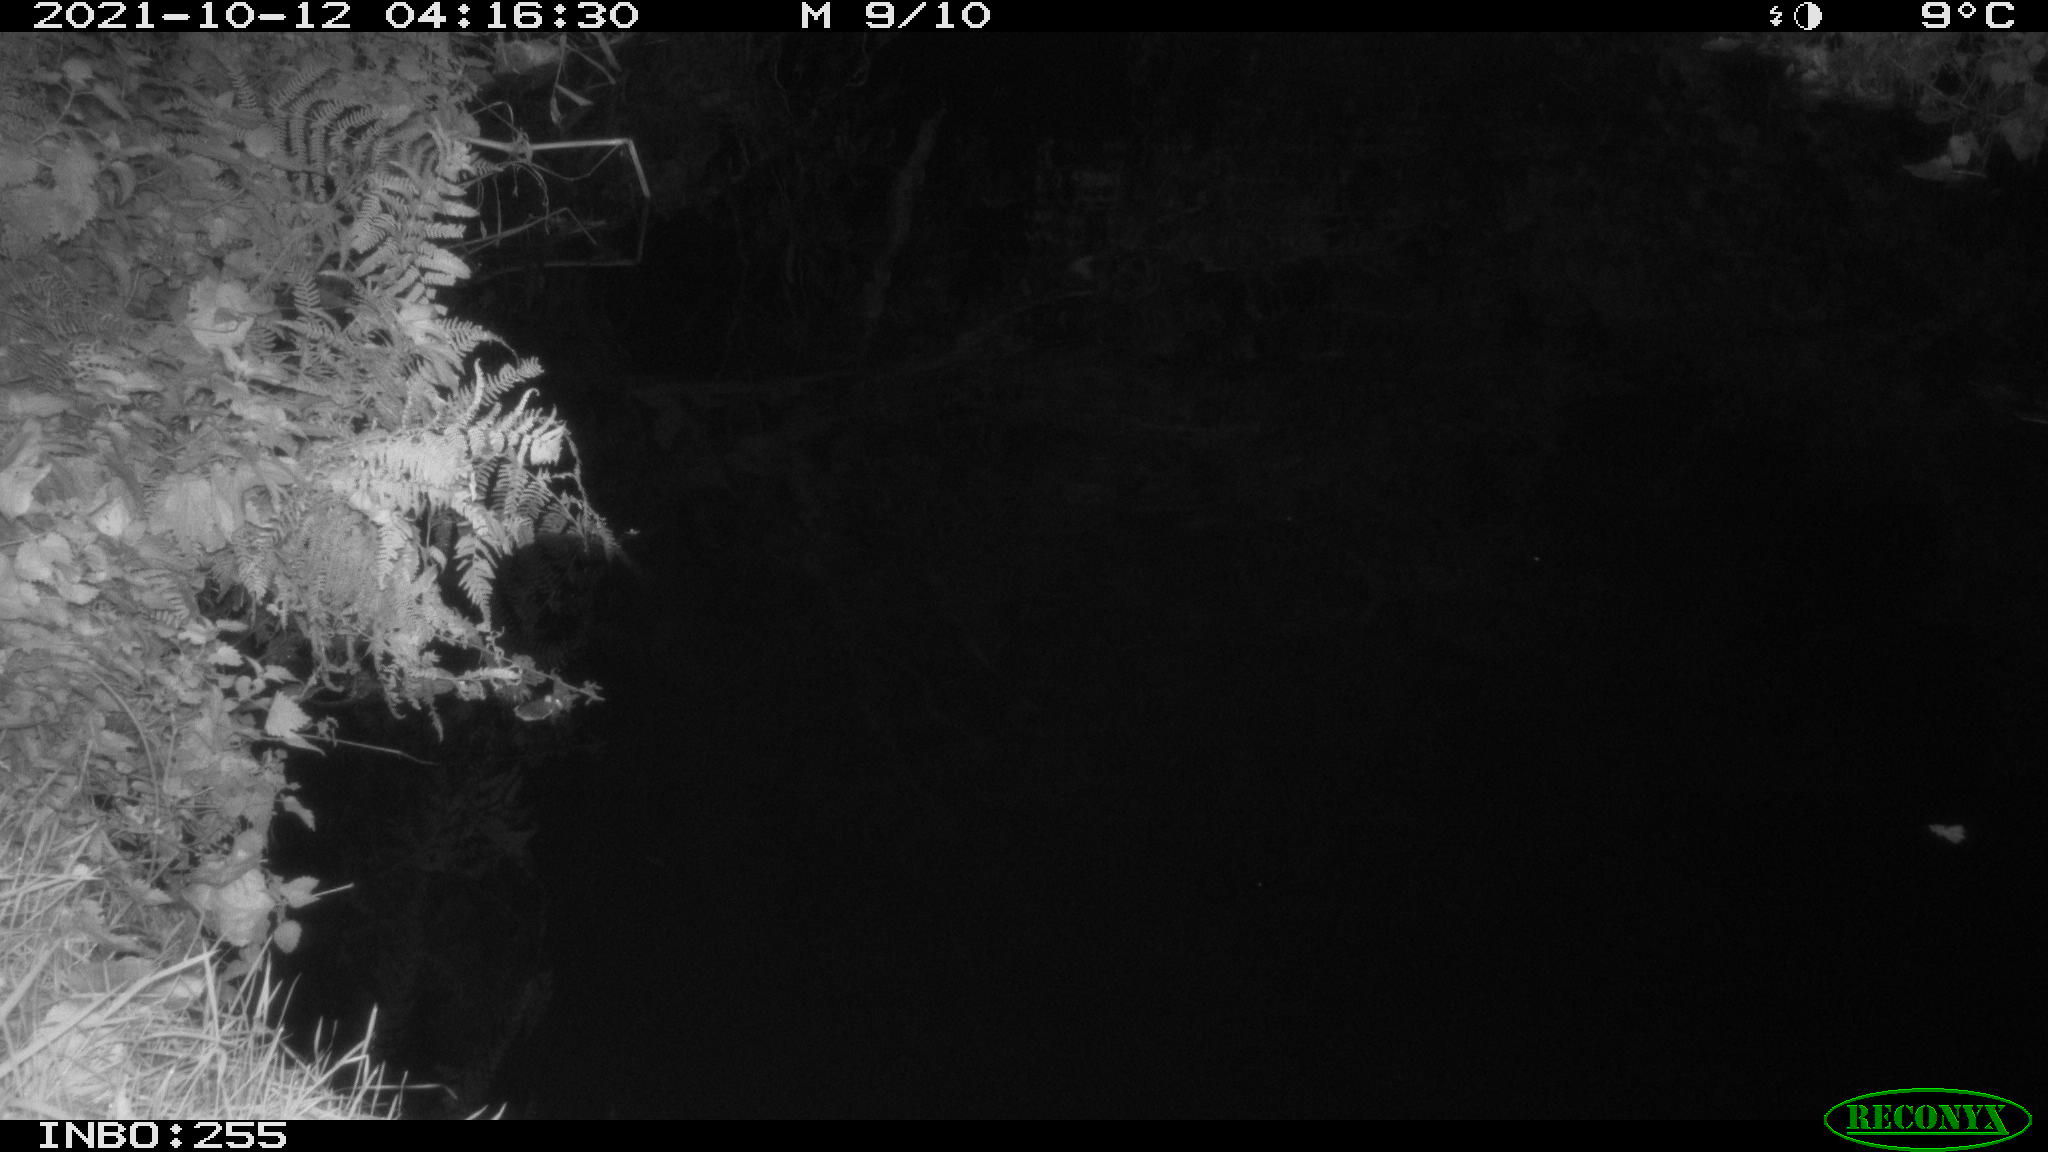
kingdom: Animalia
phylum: Chordata
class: Aves
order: Anseriformes
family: Anatidae
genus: Anas
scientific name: Anas platyrhynchos
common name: Mallard
